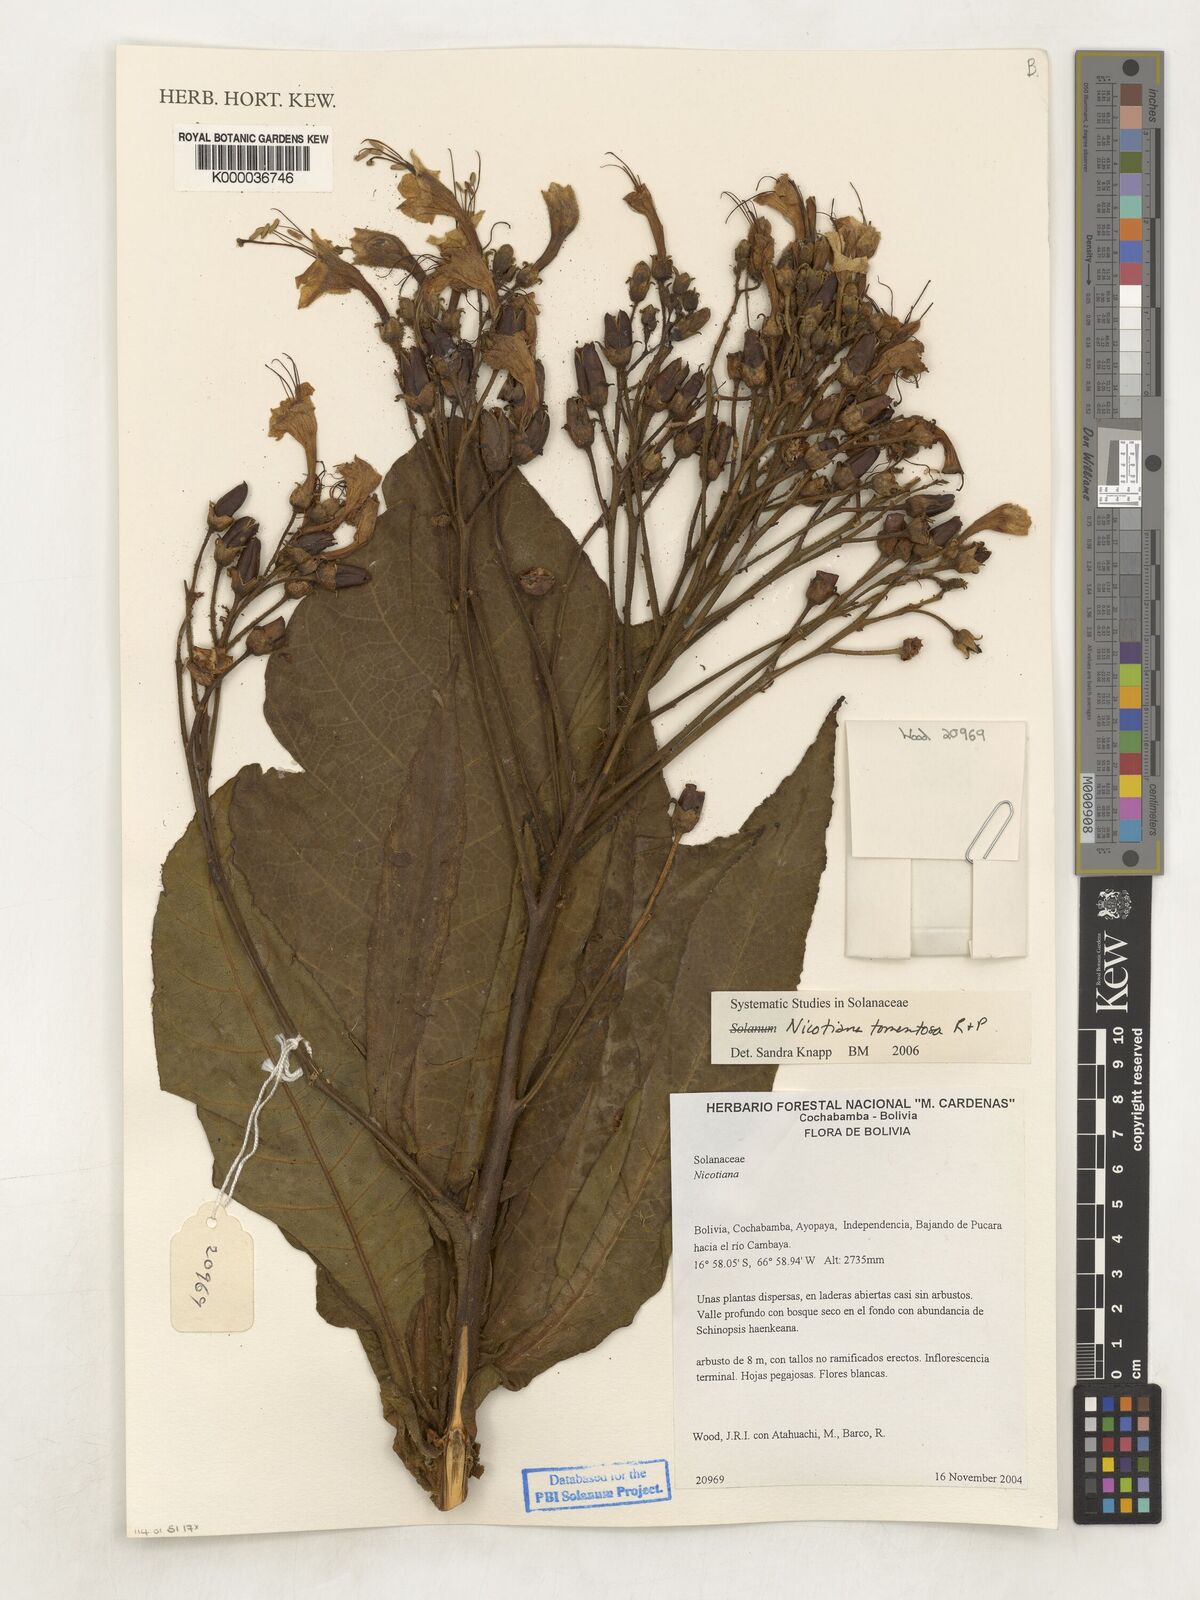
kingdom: Plantae
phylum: Tracheophyta
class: Magnoliopsida
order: Solanales
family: Solanaceae
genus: Nicotiana
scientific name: Nicotiana
